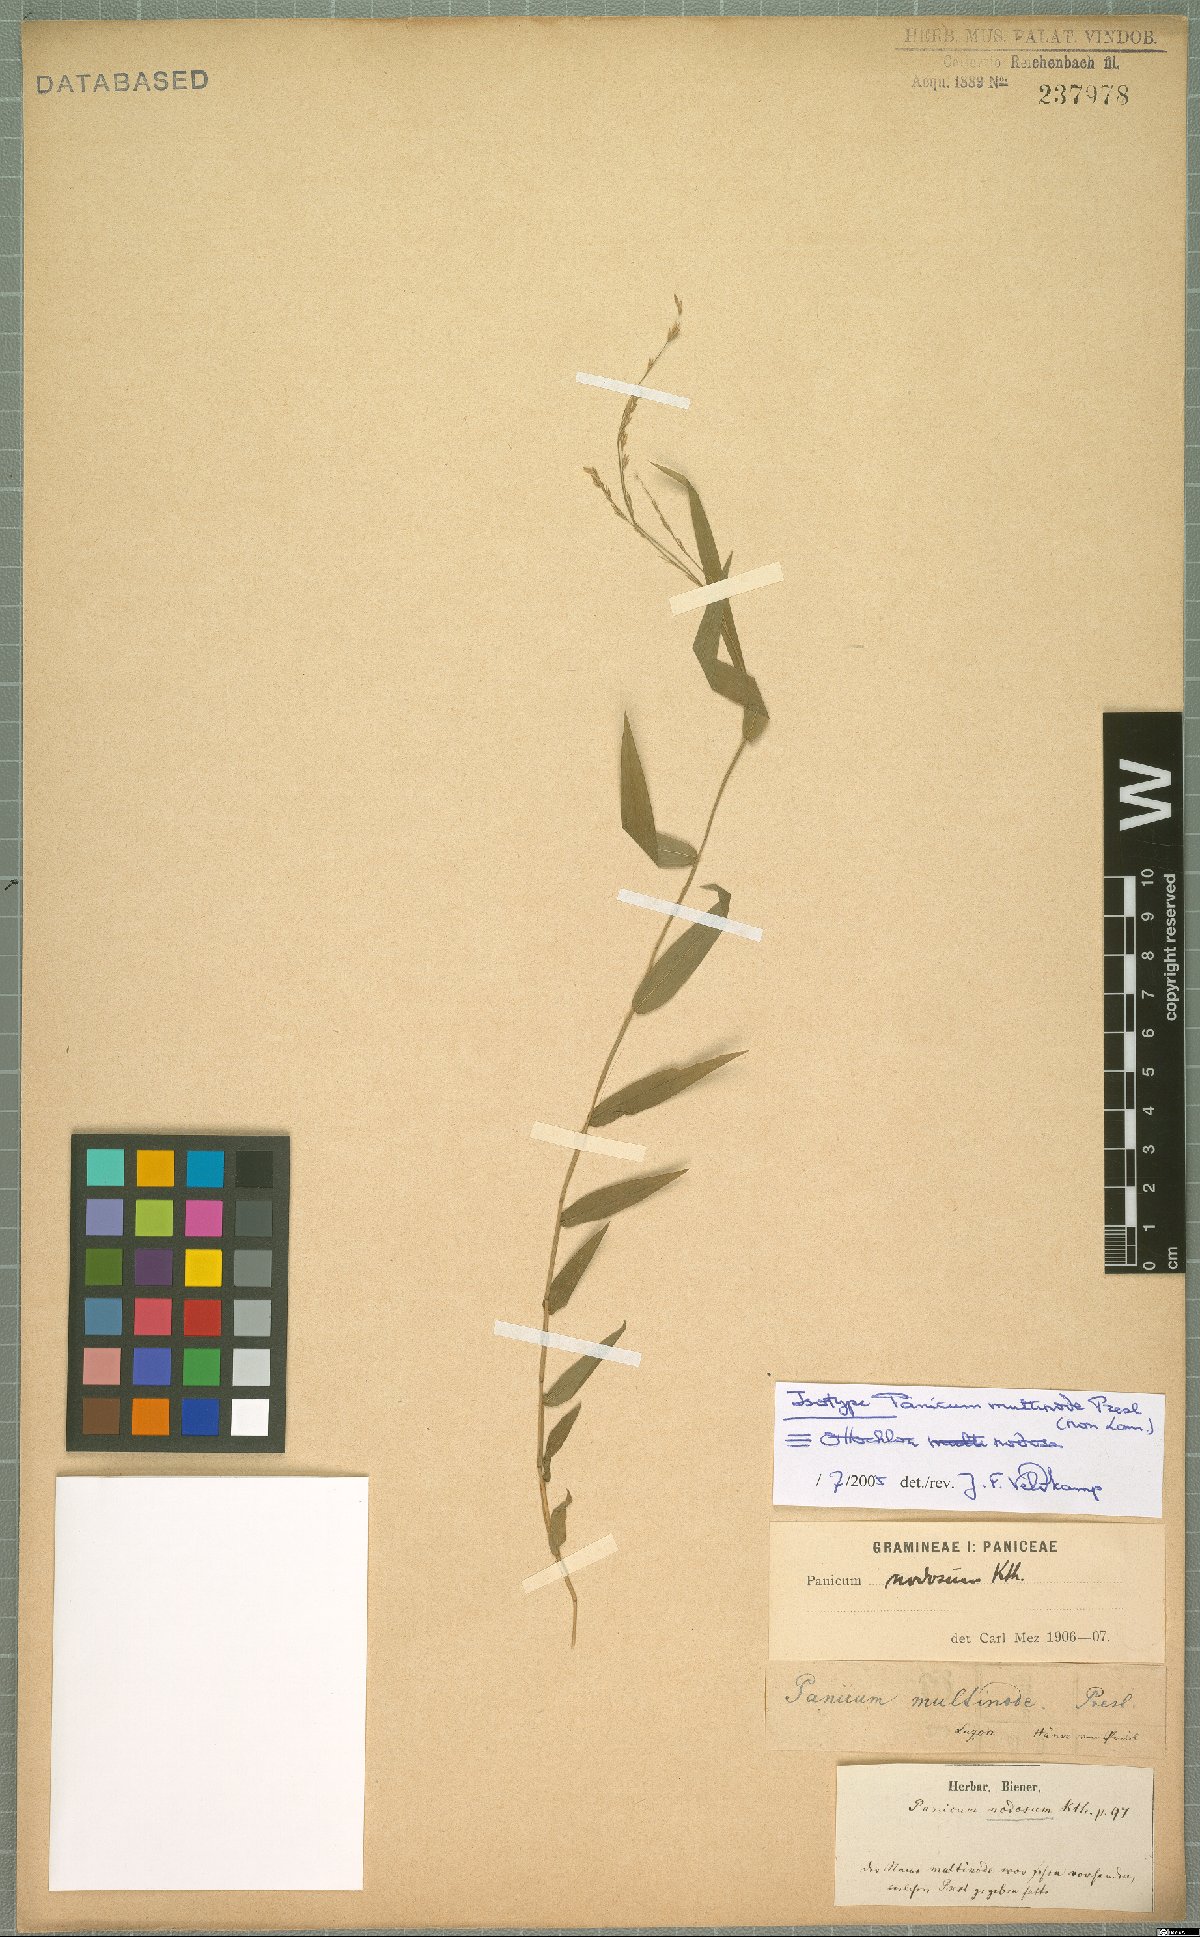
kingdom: Plantae
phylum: Tracheophyta
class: Liliopsida
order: Poales
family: Poaceae
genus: Ottochloa
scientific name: Ottochloa nodosa
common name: Slender-panic grass
